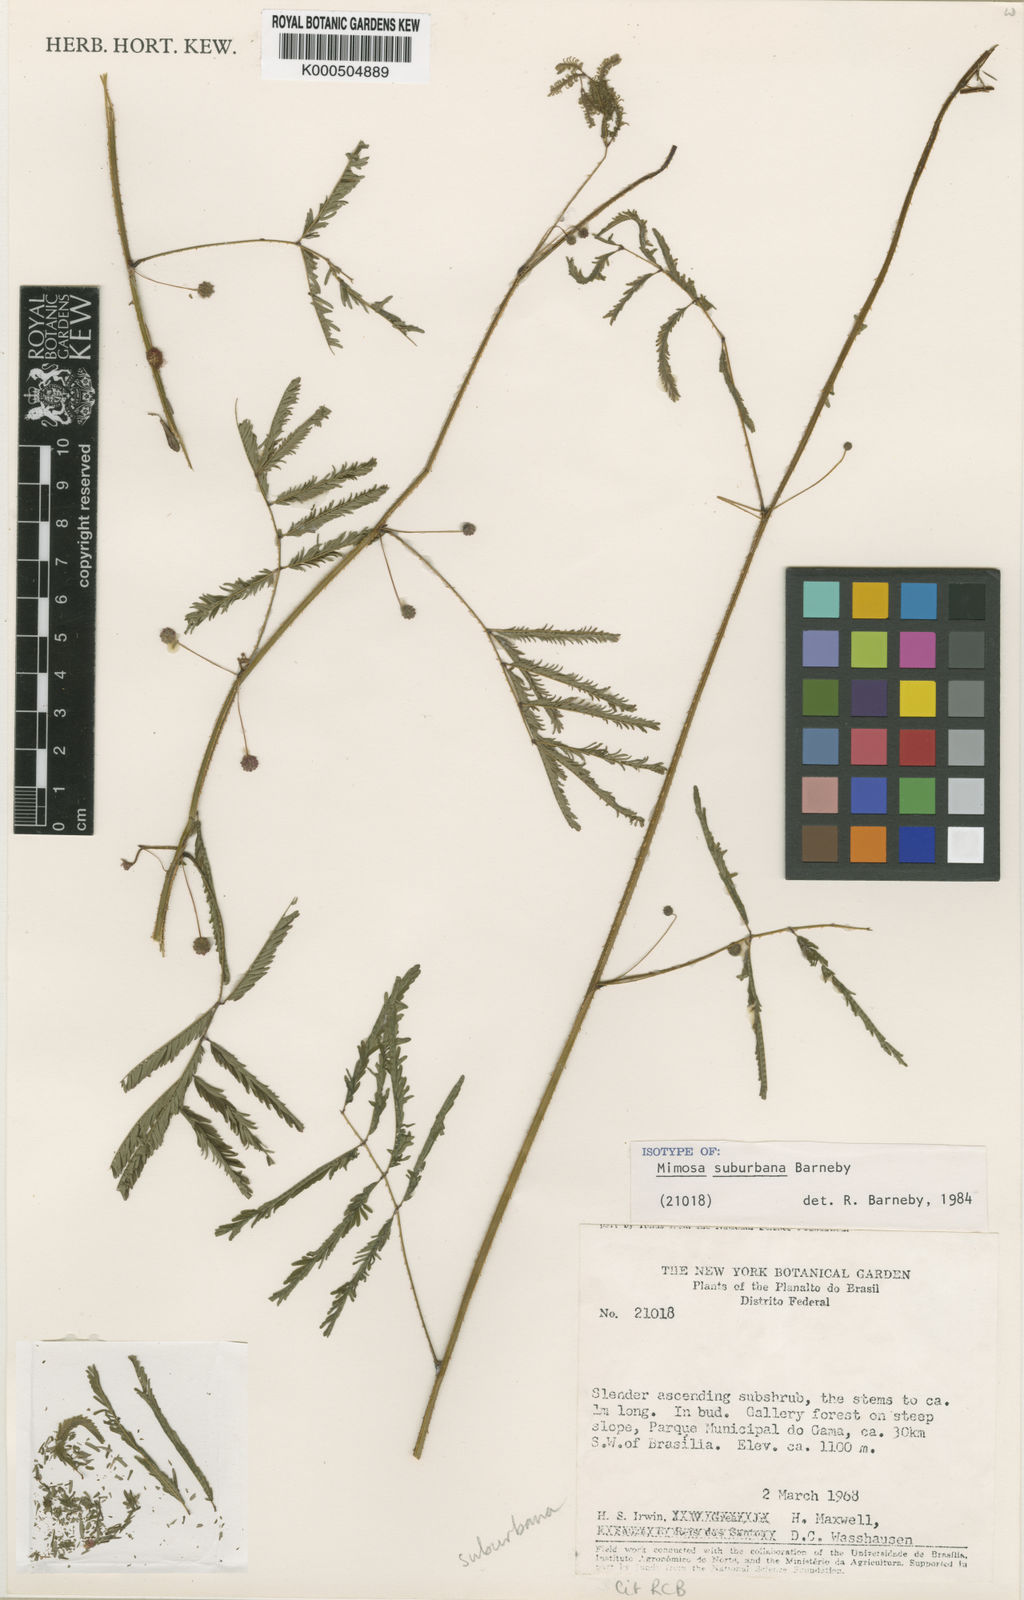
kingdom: Plantae
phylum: Tracheophyta
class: Magnoliopsida
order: Fabales
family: Fabaceae
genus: Mimosa
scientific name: Mimosa suburbana
